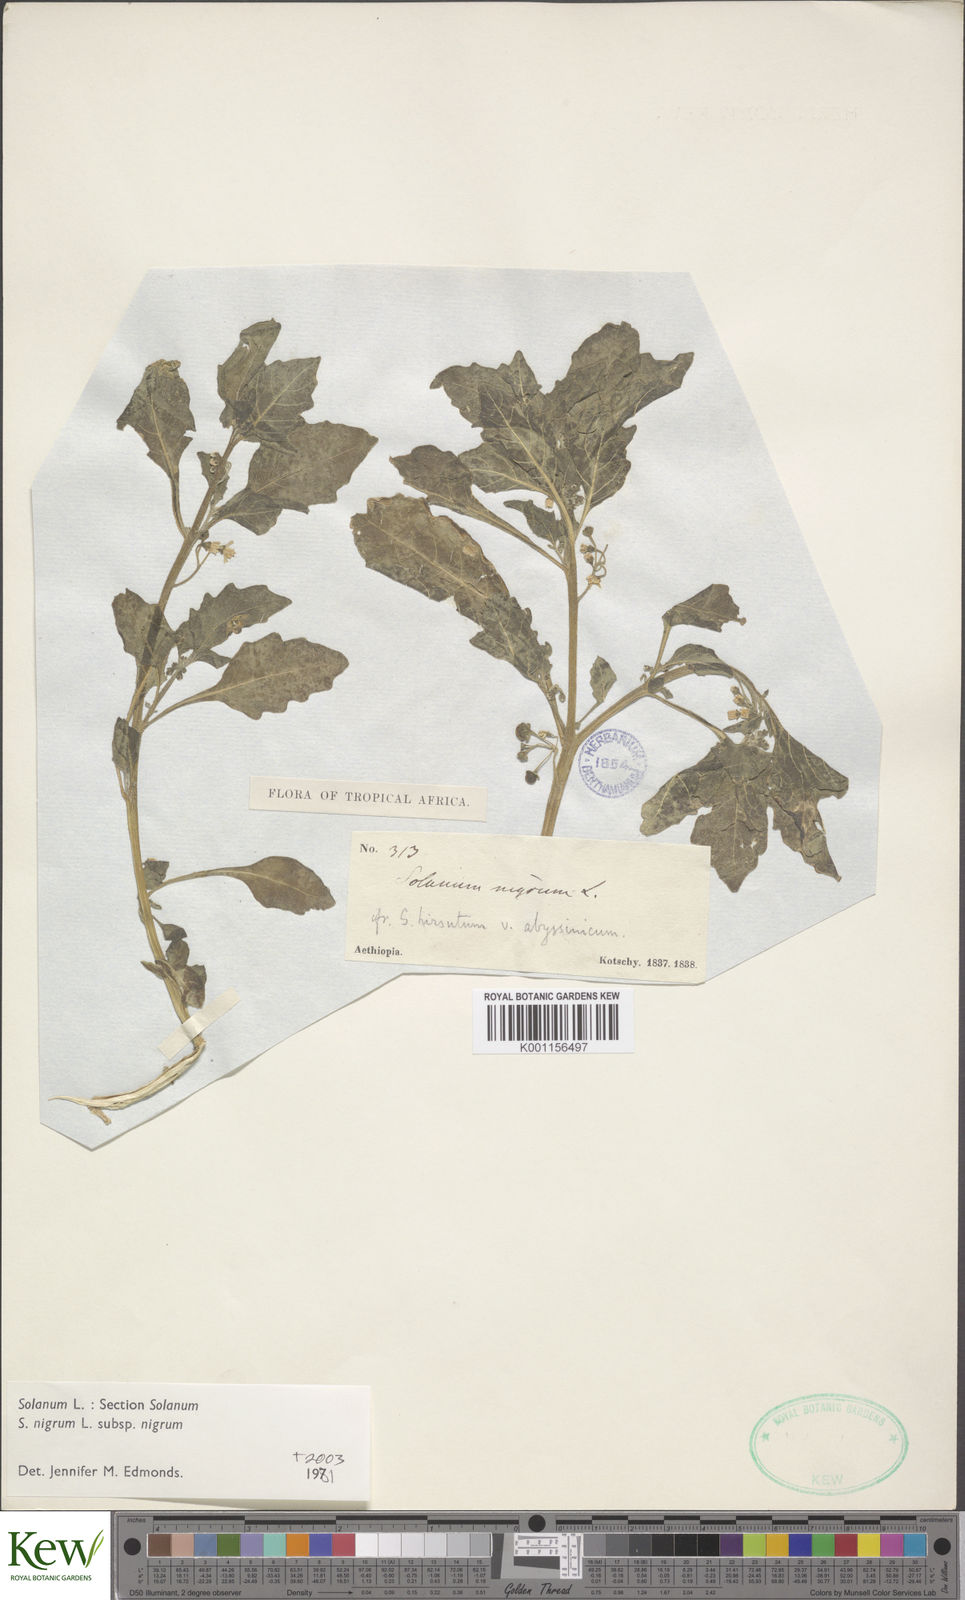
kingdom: Plantae
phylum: Tracheophyta
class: Magnoliopsida
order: Solanales
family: Solanaceae
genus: Solanum
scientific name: Solanum nigrum
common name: Black nightshade
